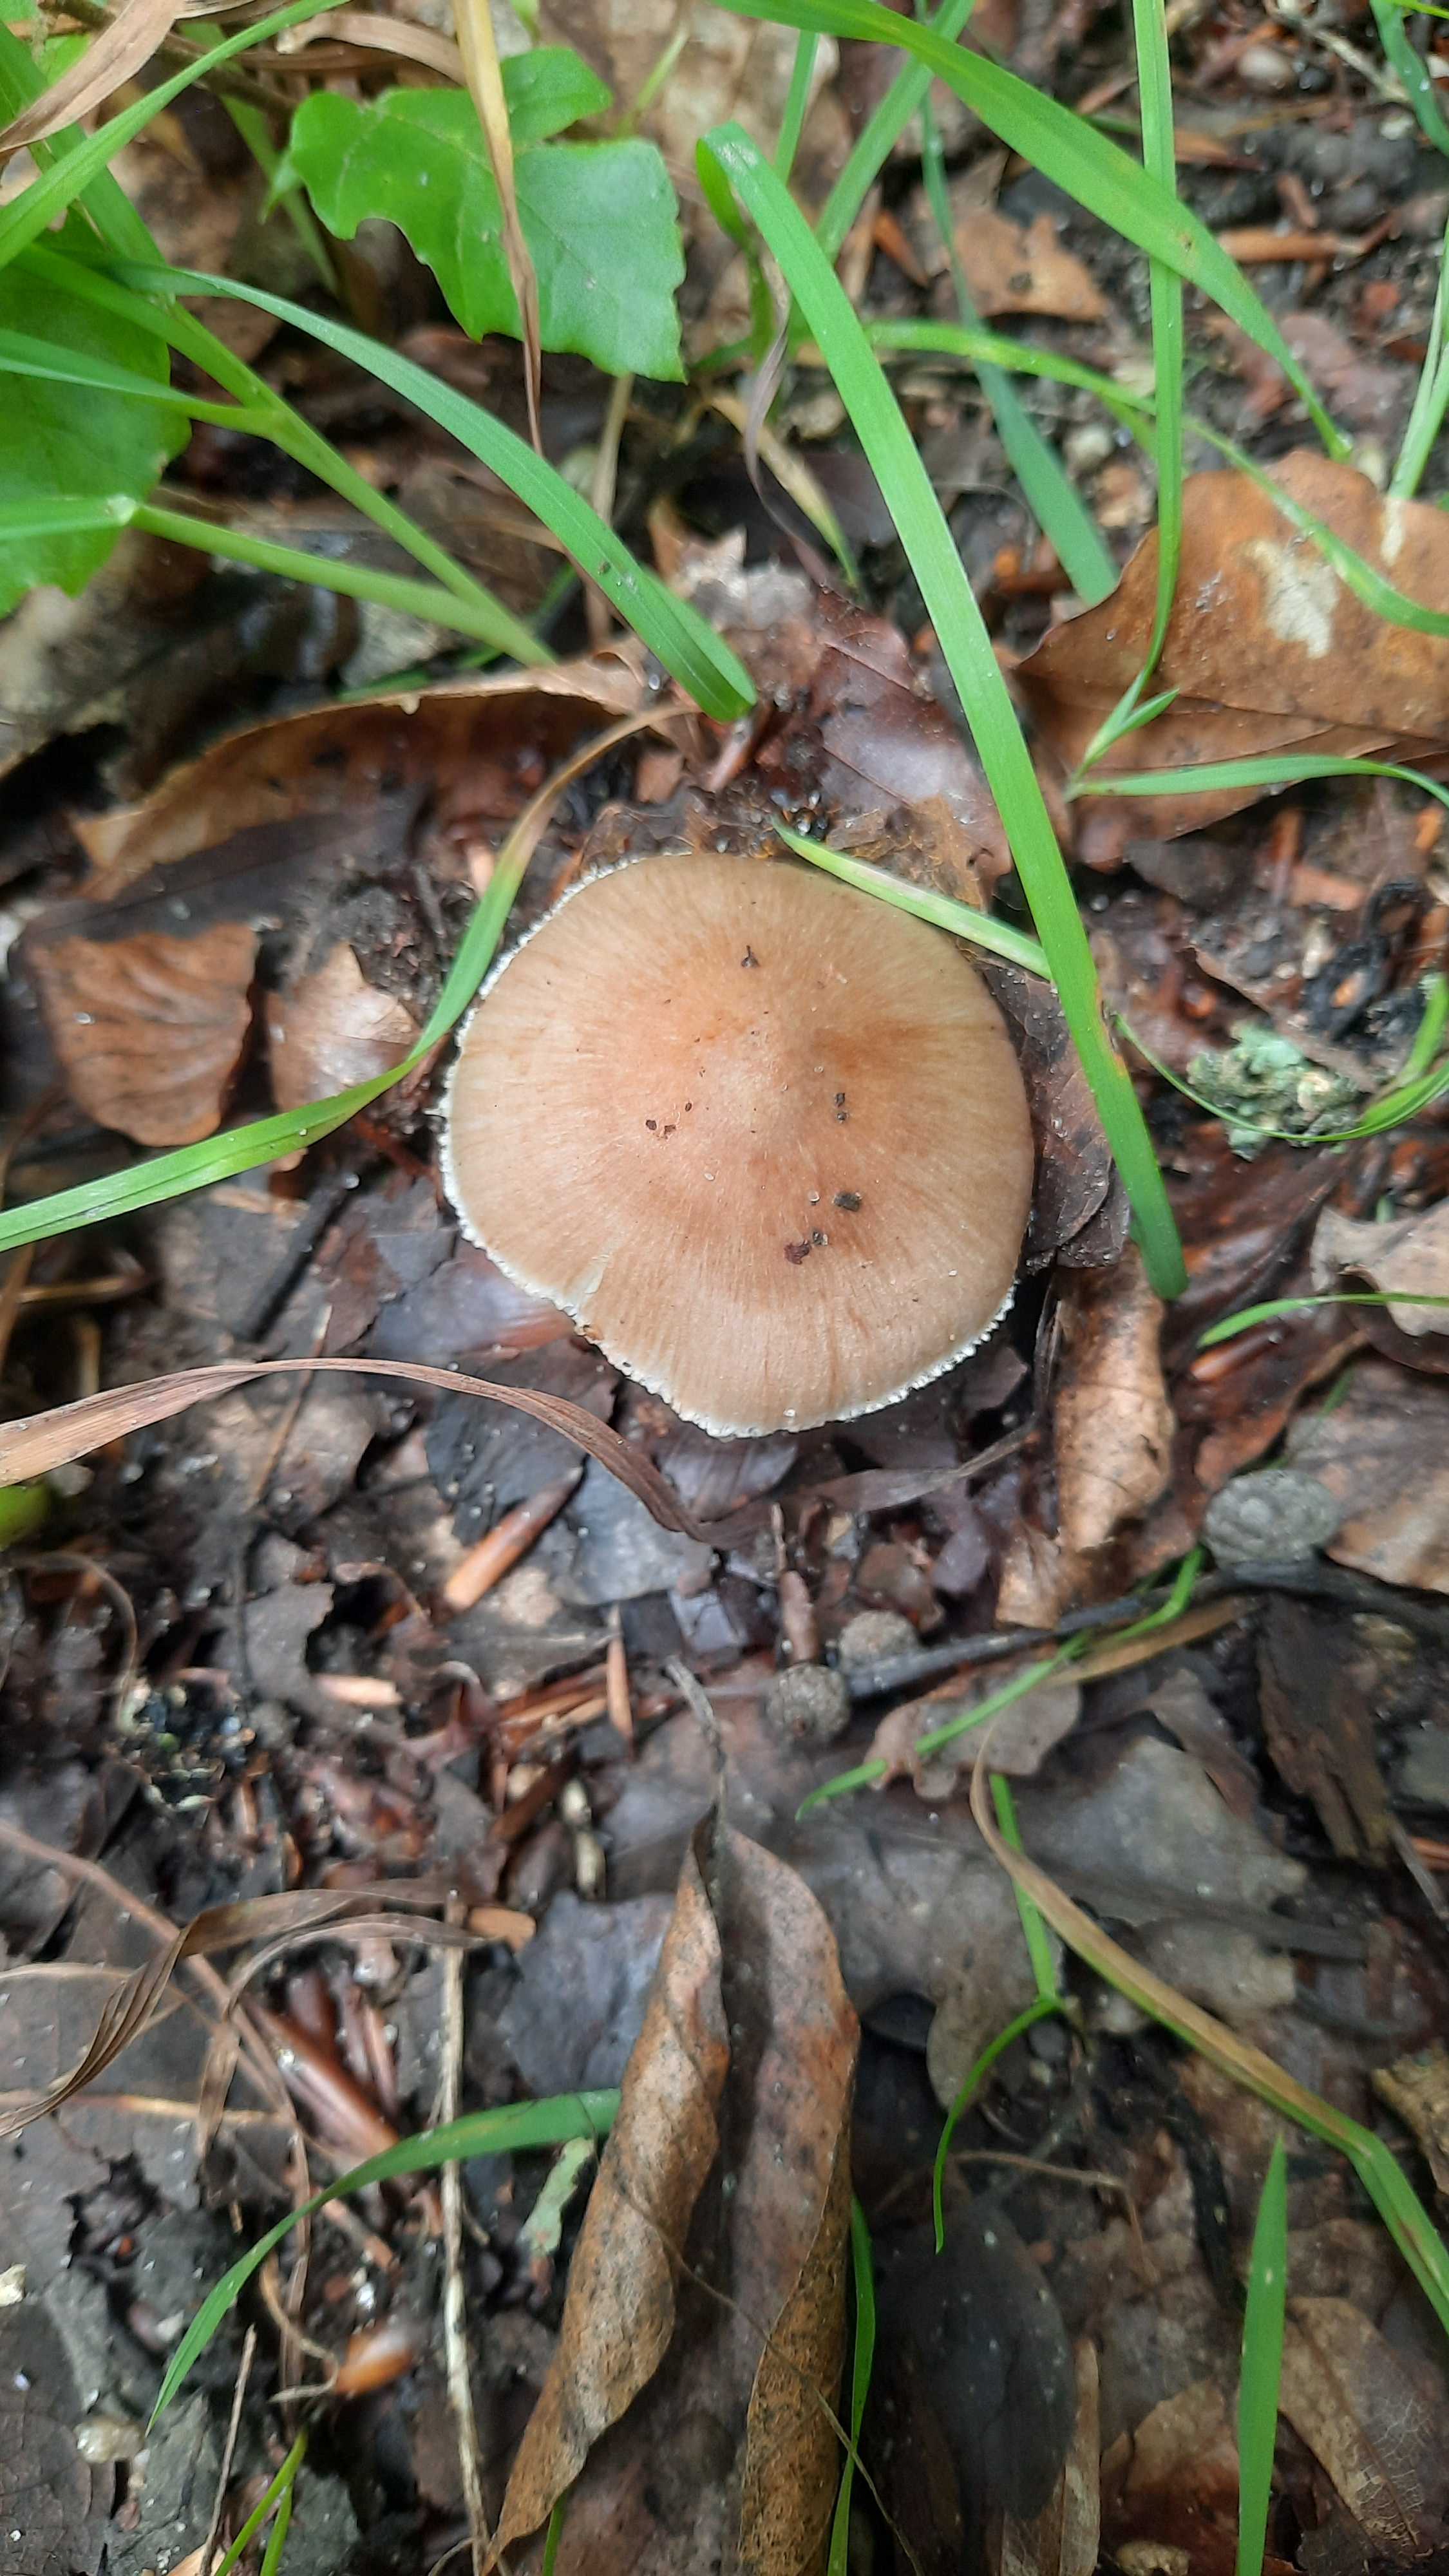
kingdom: Fungi
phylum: Basidiomycota
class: Agaricomycetes
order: Agaricales
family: Inocybaceae
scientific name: Inocybaceae
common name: trævlhatfamilien
